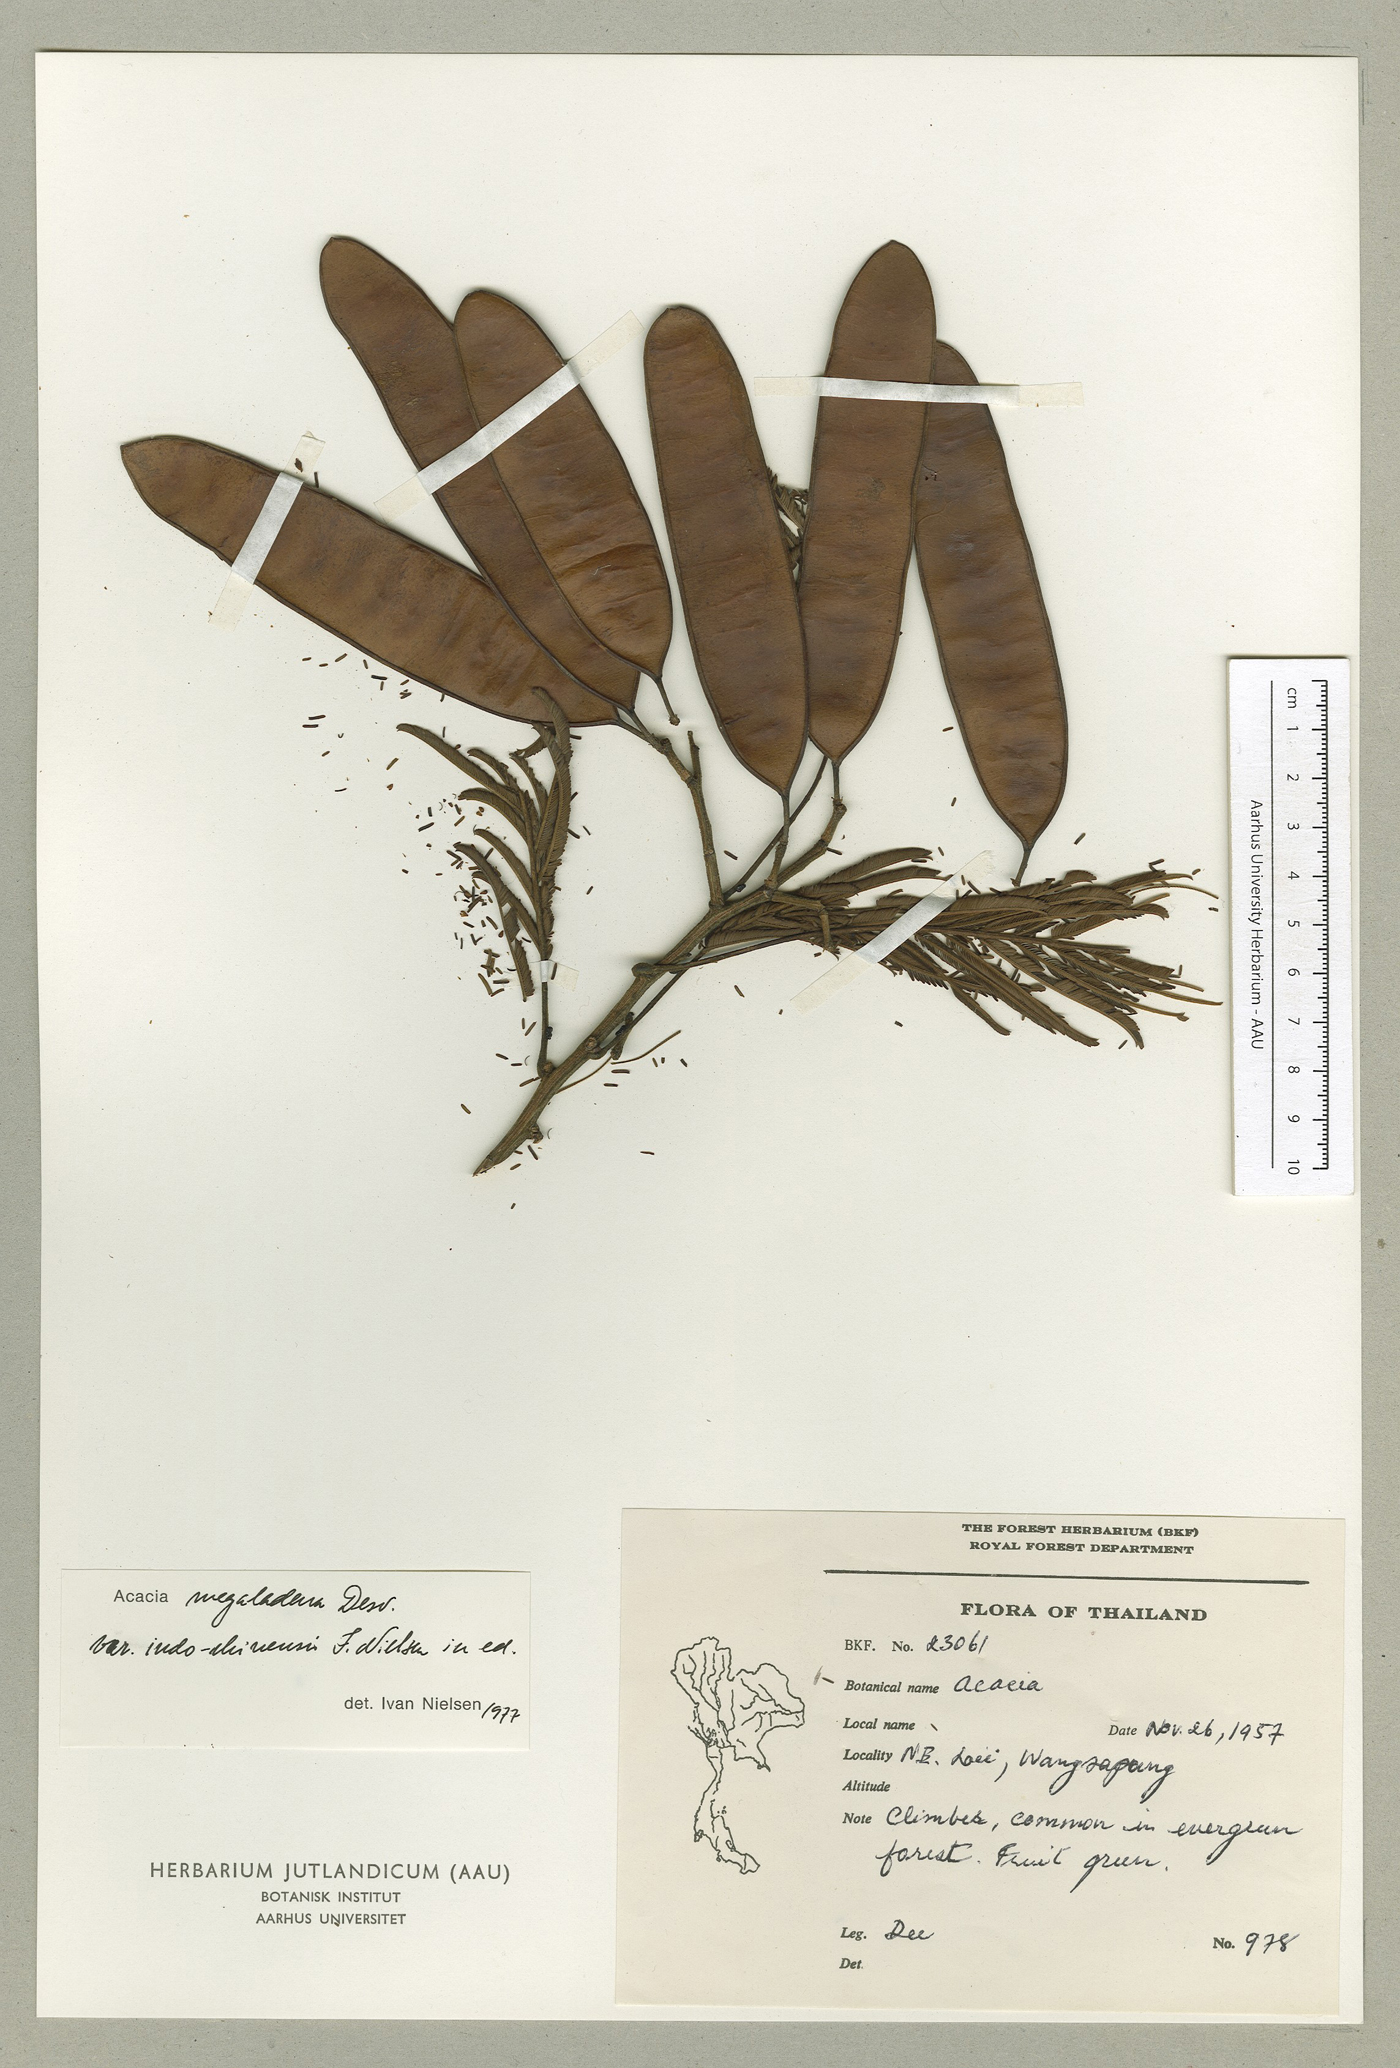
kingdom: Plantae
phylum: Tracheophyta
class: Magnoliopsida
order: Fabales
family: Fabaceae
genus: Senegalia
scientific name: Senegalia megaladena
